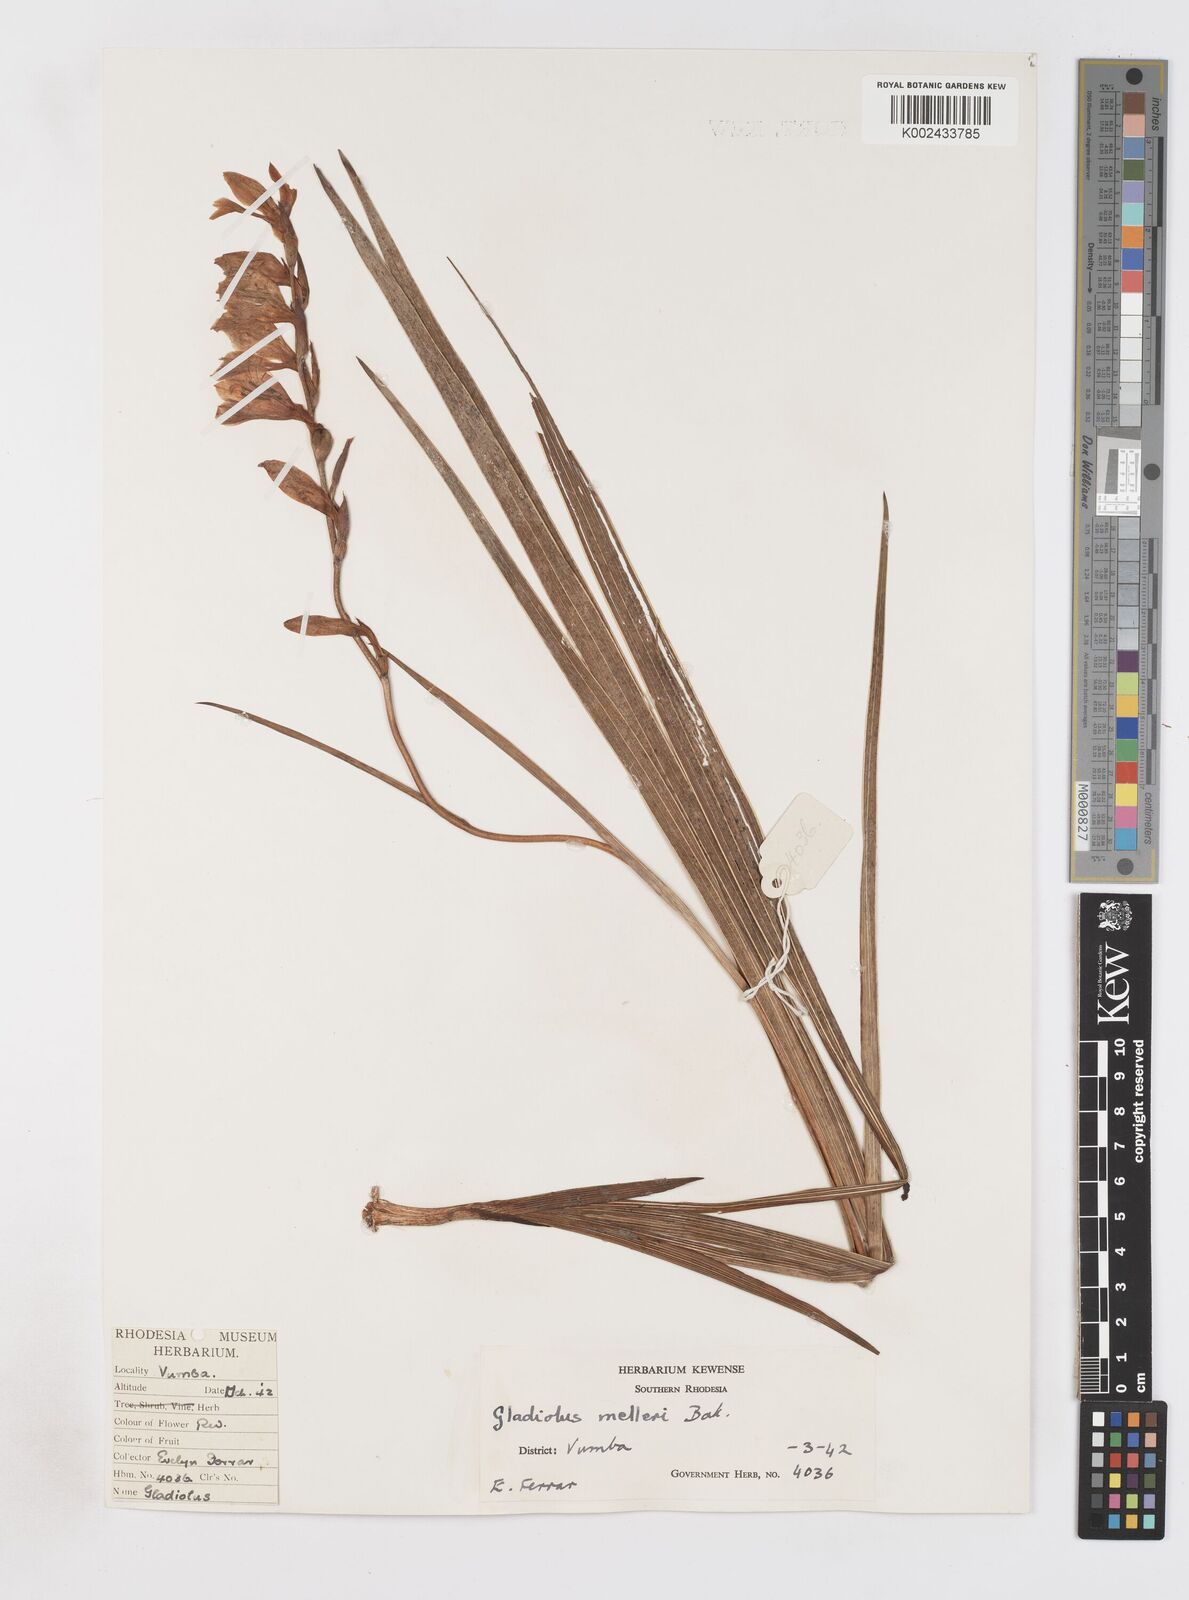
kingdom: Plantae
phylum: Tracheophyta
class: Liliopsida
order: Asparagales
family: Iridaceae
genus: Gladiolus
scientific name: Gladiolus crassifolius
